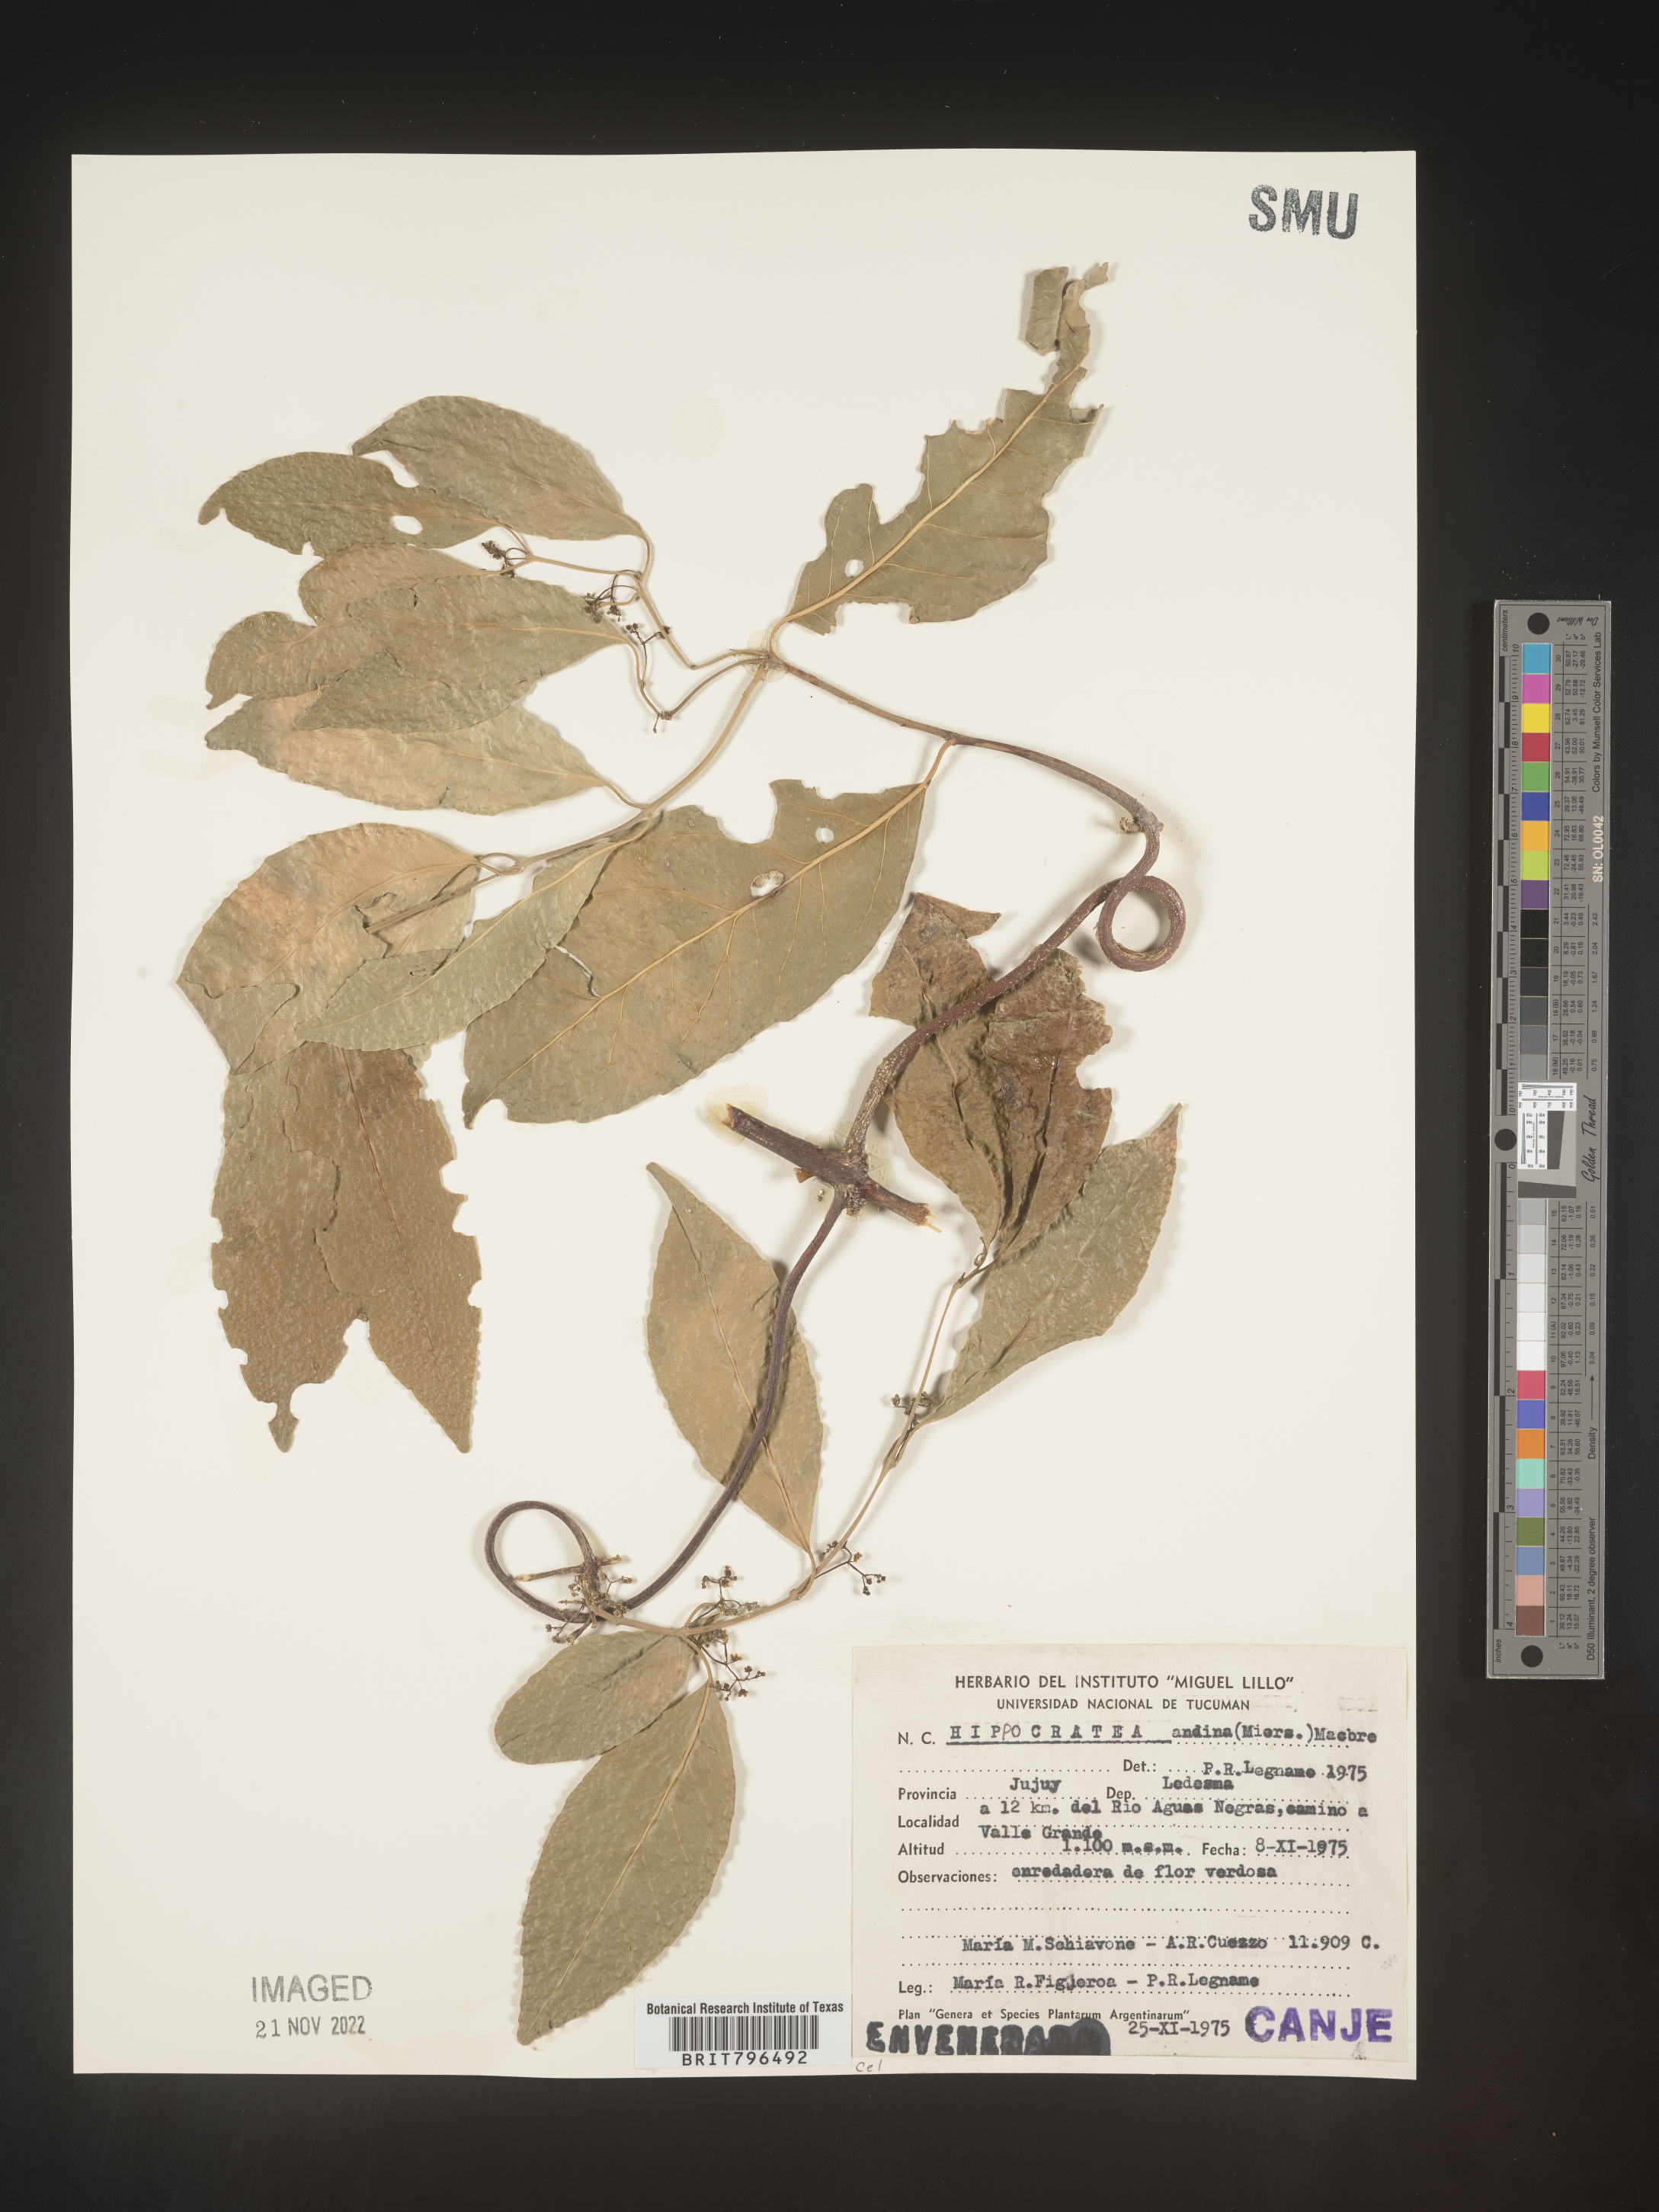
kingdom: Plantae
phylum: Tracheophyta
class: Magnoliopsida
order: Celastrales
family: Celastraceae
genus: Hippocratea
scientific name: Hippocratea
